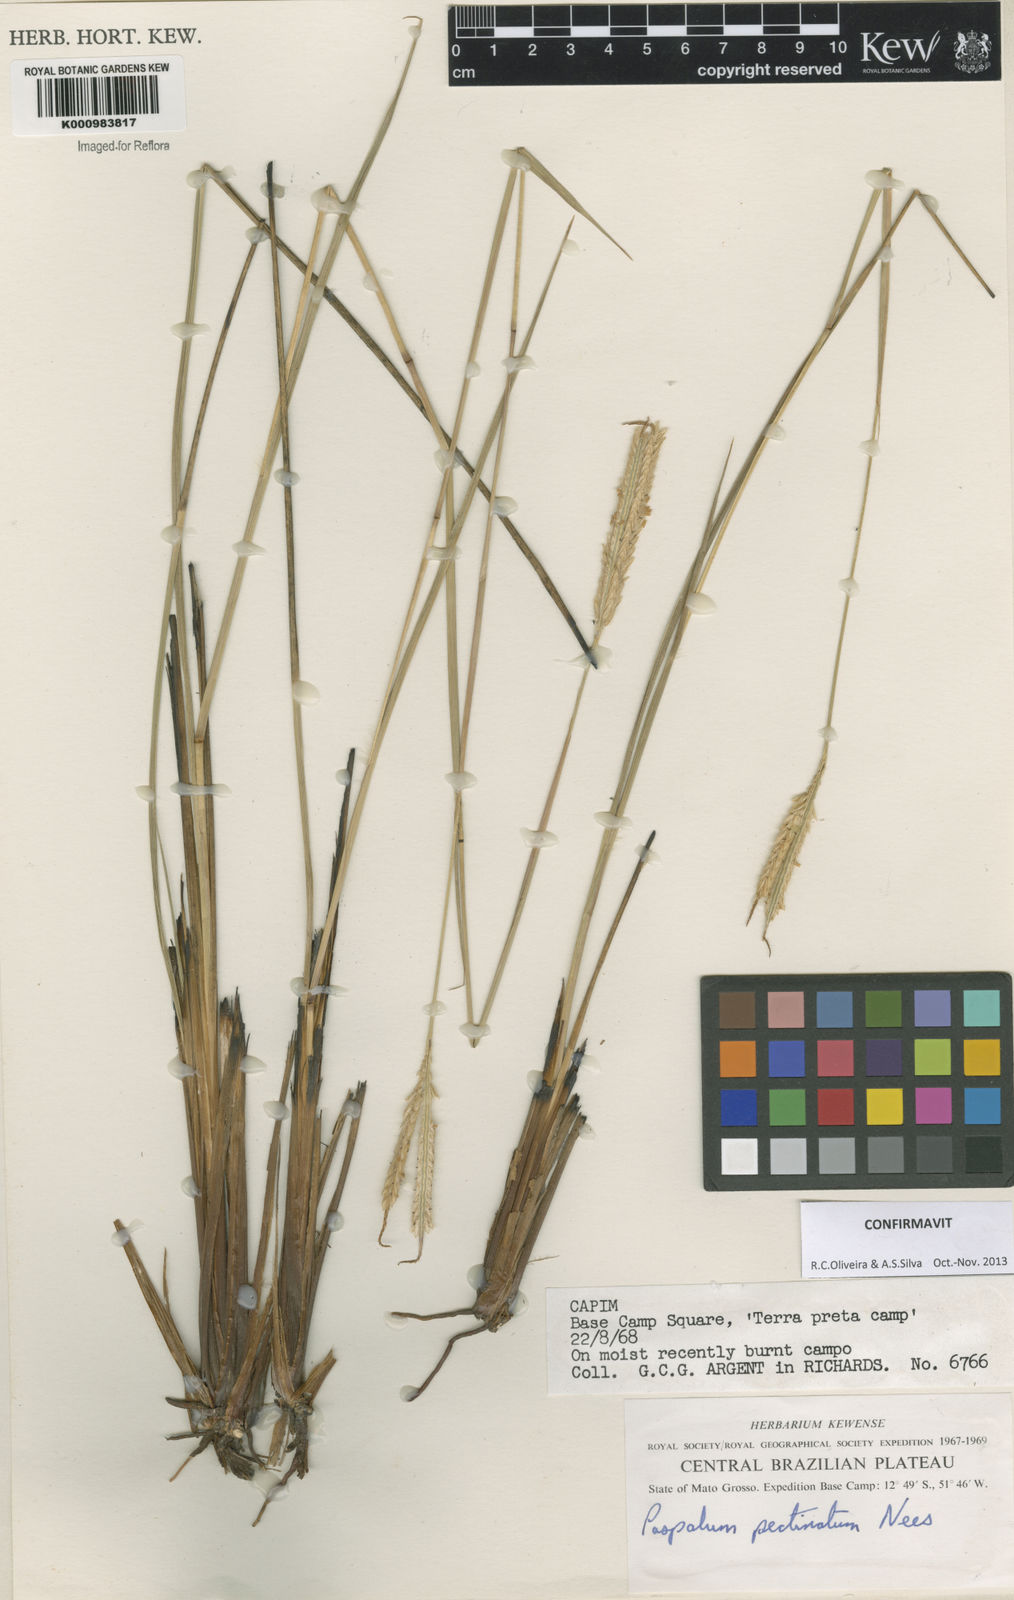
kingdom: Plantae
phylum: Tracheophyta
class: Liliopsida
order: Poales
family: Poaceae
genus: Paspalum
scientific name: Paspalum
